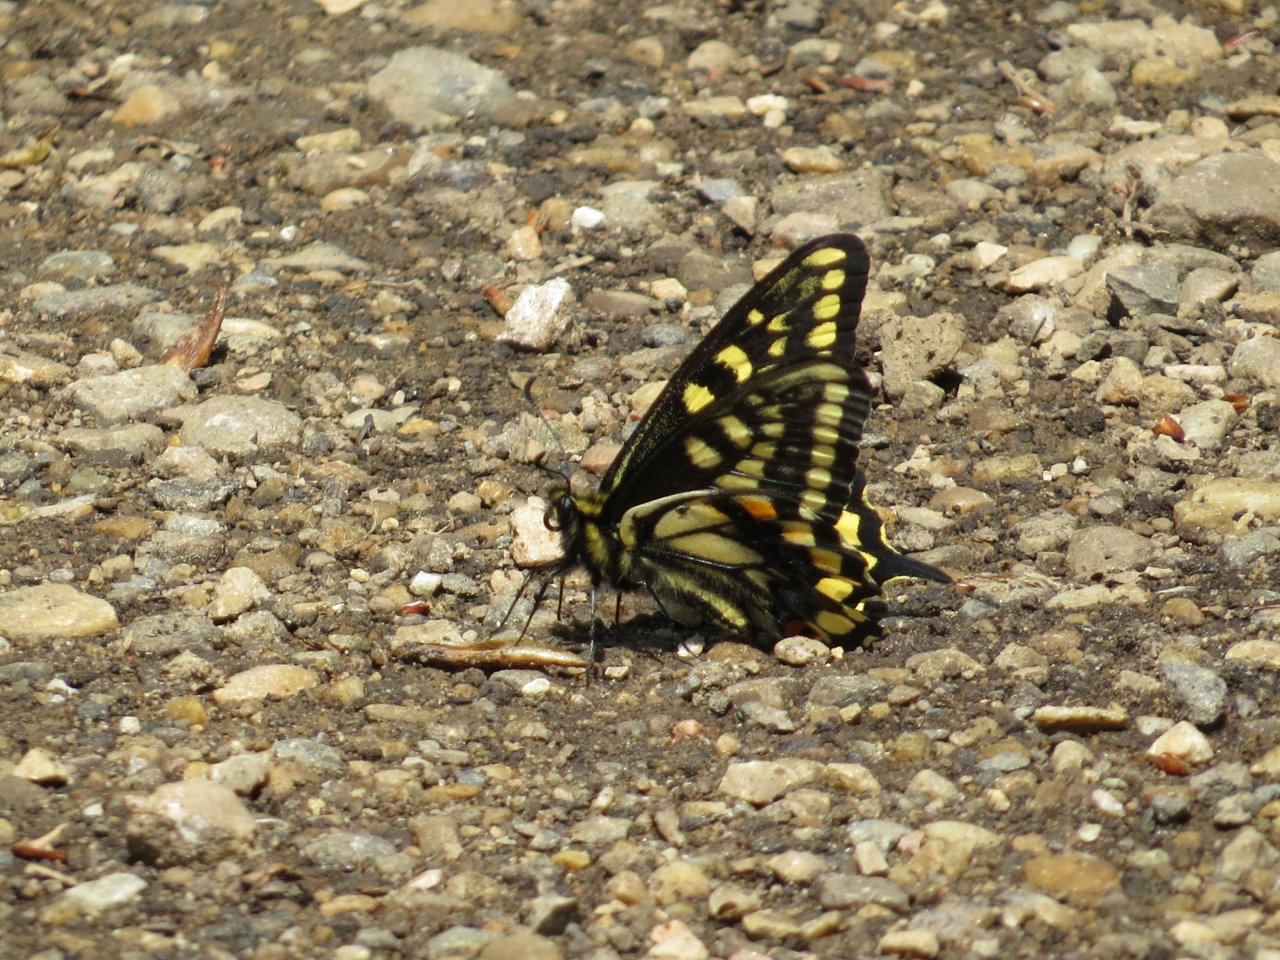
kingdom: Animalia
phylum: Arthropoda
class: Insecta
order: Lepidoptera
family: Papilionidae
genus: Papilio
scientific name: Papilio machaon
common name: Old World Swallowtail
